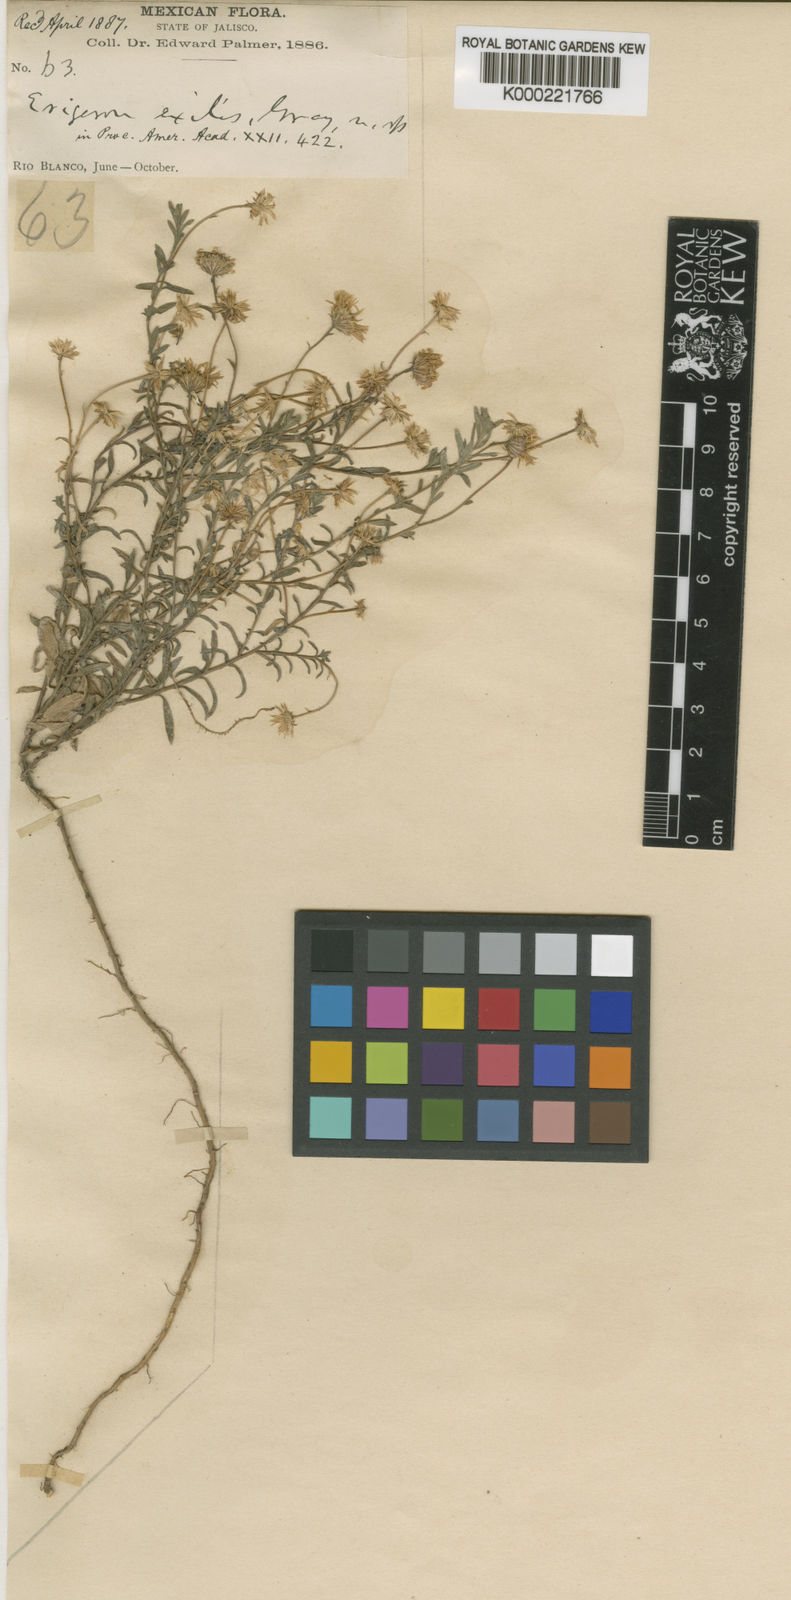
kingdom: Plantae
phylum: Tracheophyta
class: Magnoliopsida
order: Asterales
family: Asteraceae
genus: Erigeron
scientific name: Erigeron exilis
